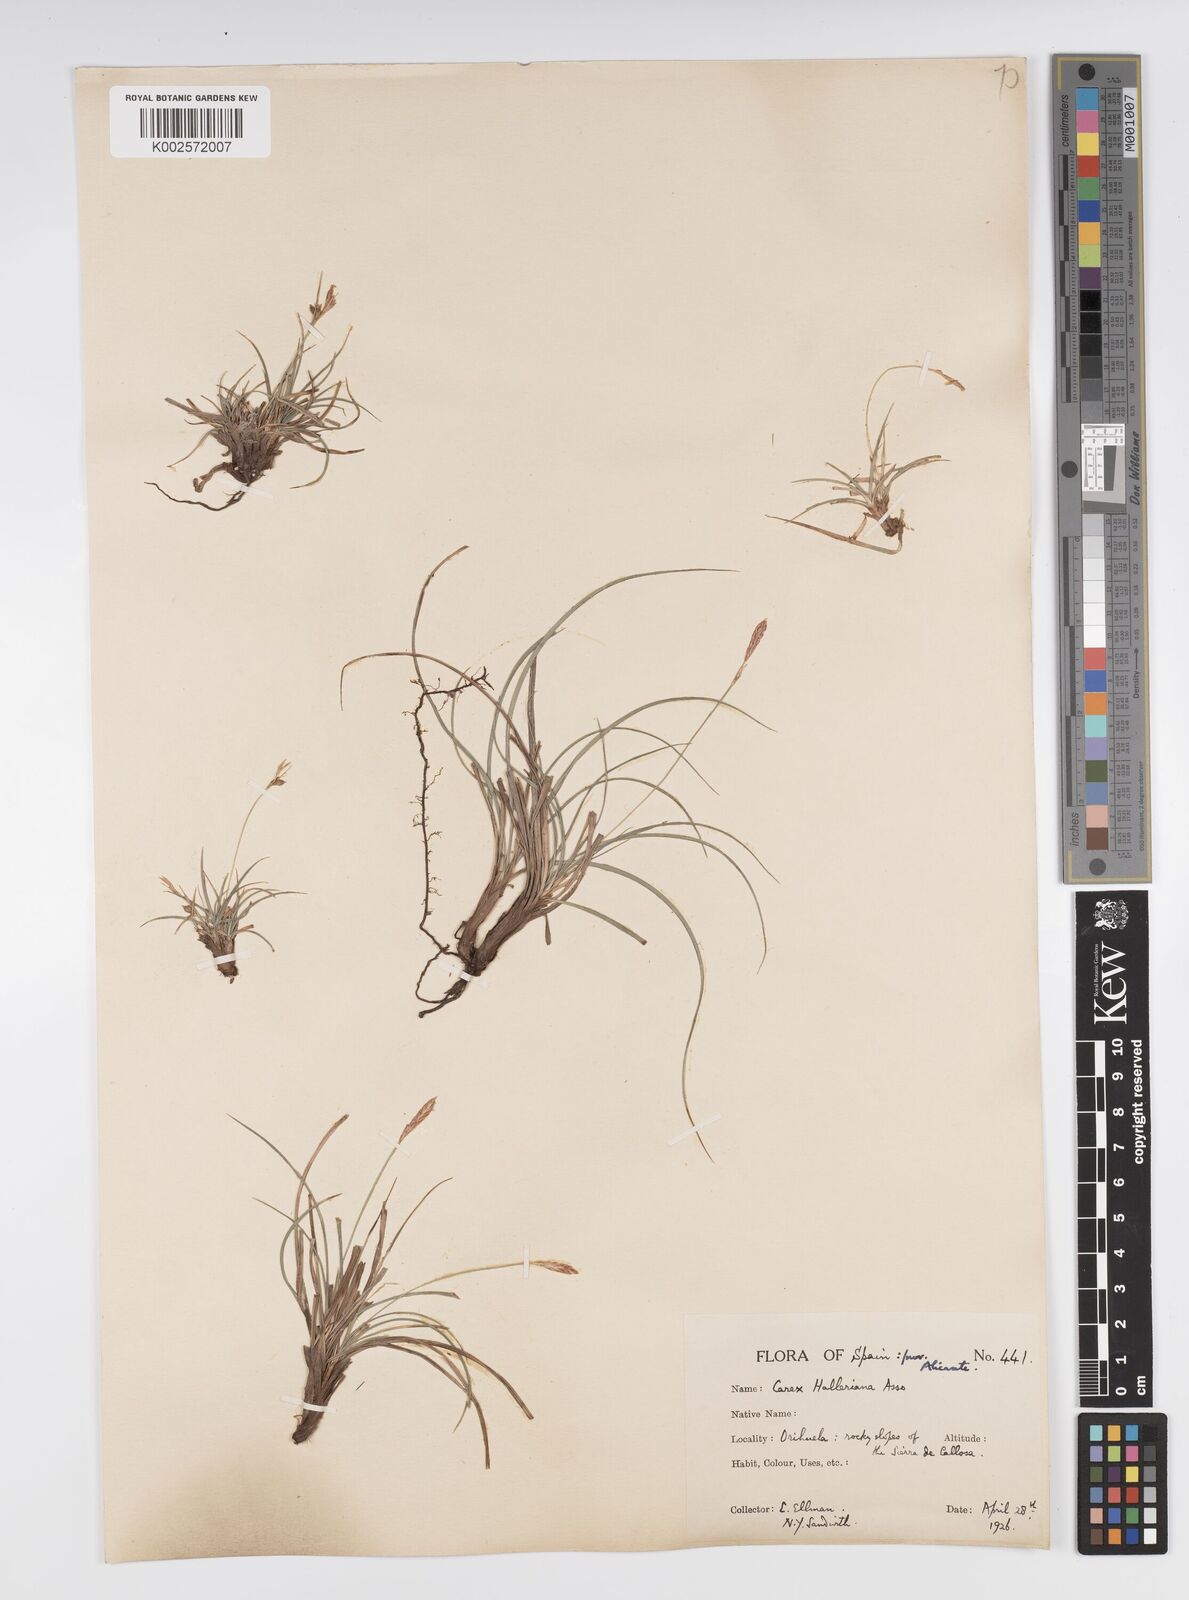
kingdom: Plantae
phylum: Tracheophyta
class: Liliopsida
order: Poales
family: Cyperaceae
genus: Carex
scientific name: Carex halleriana
